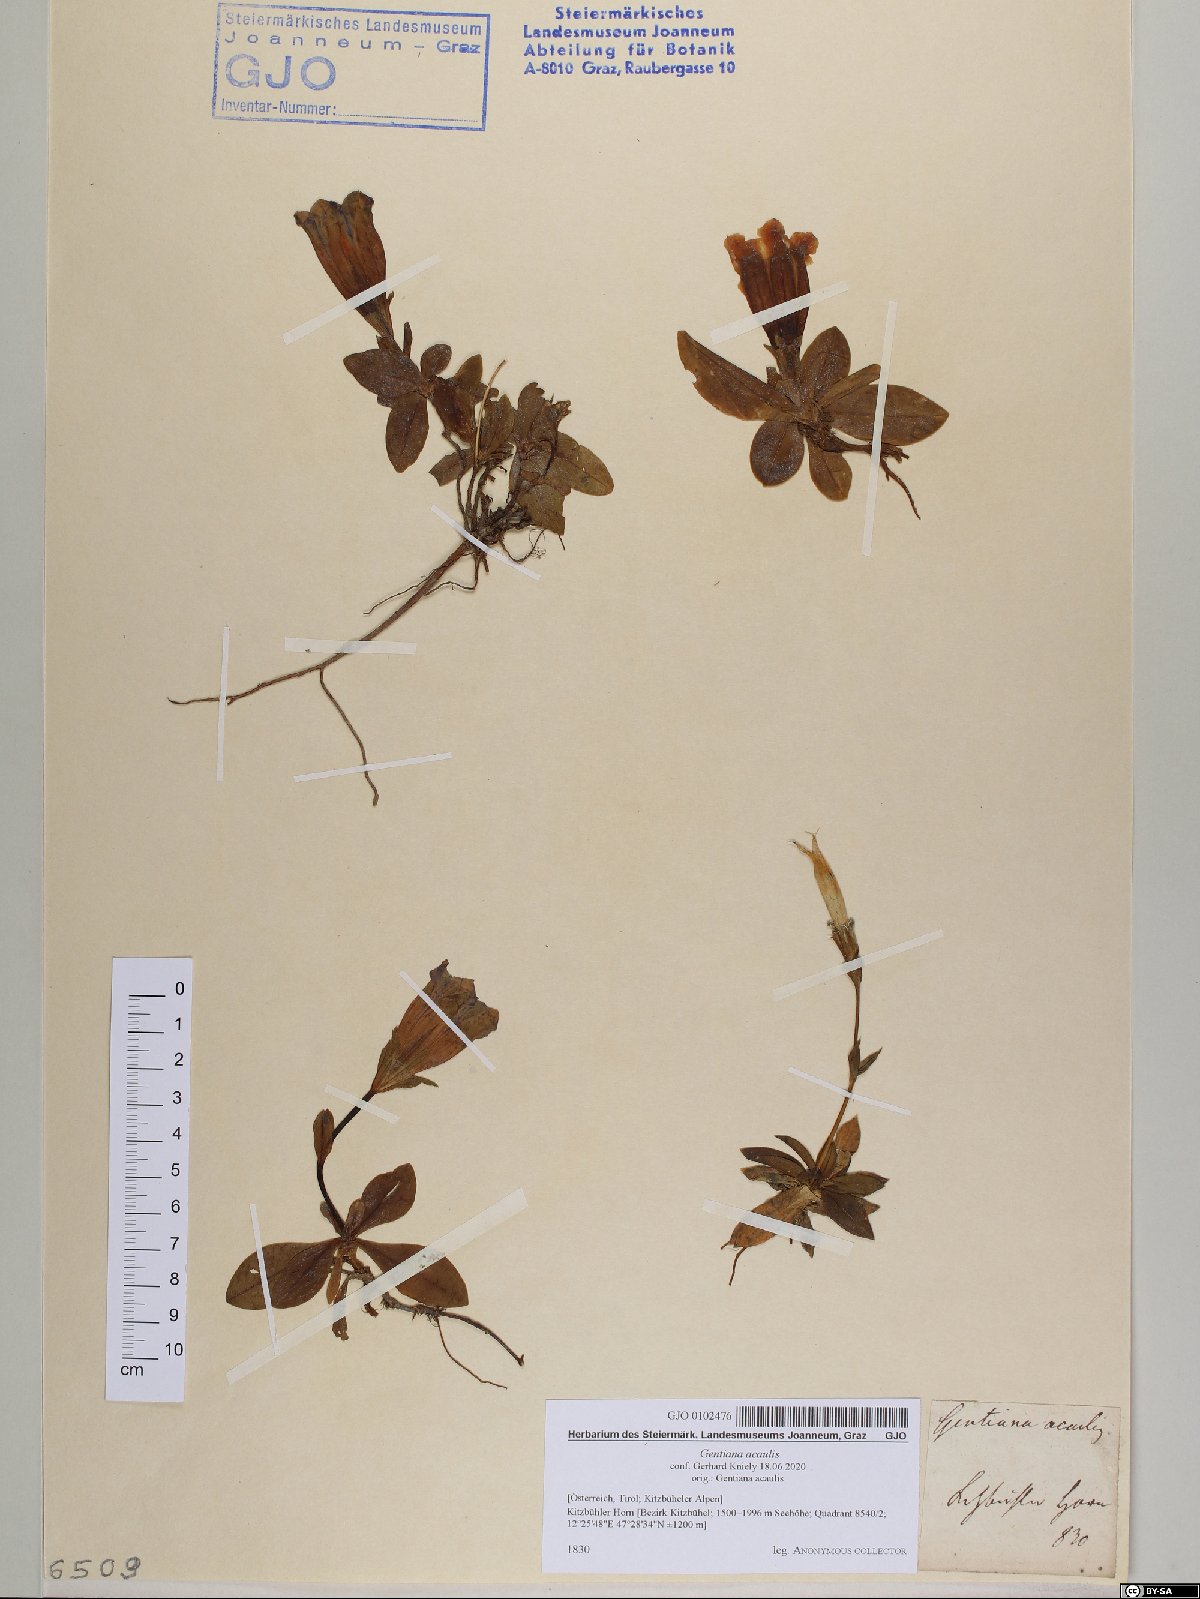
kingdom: Plantae
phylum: Tracheophyta
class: Magnoliopsida
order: Gentianales
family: Gentianaceae
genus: Gentiana
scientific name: Gentiana acaulis
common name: Trumpet gentian
